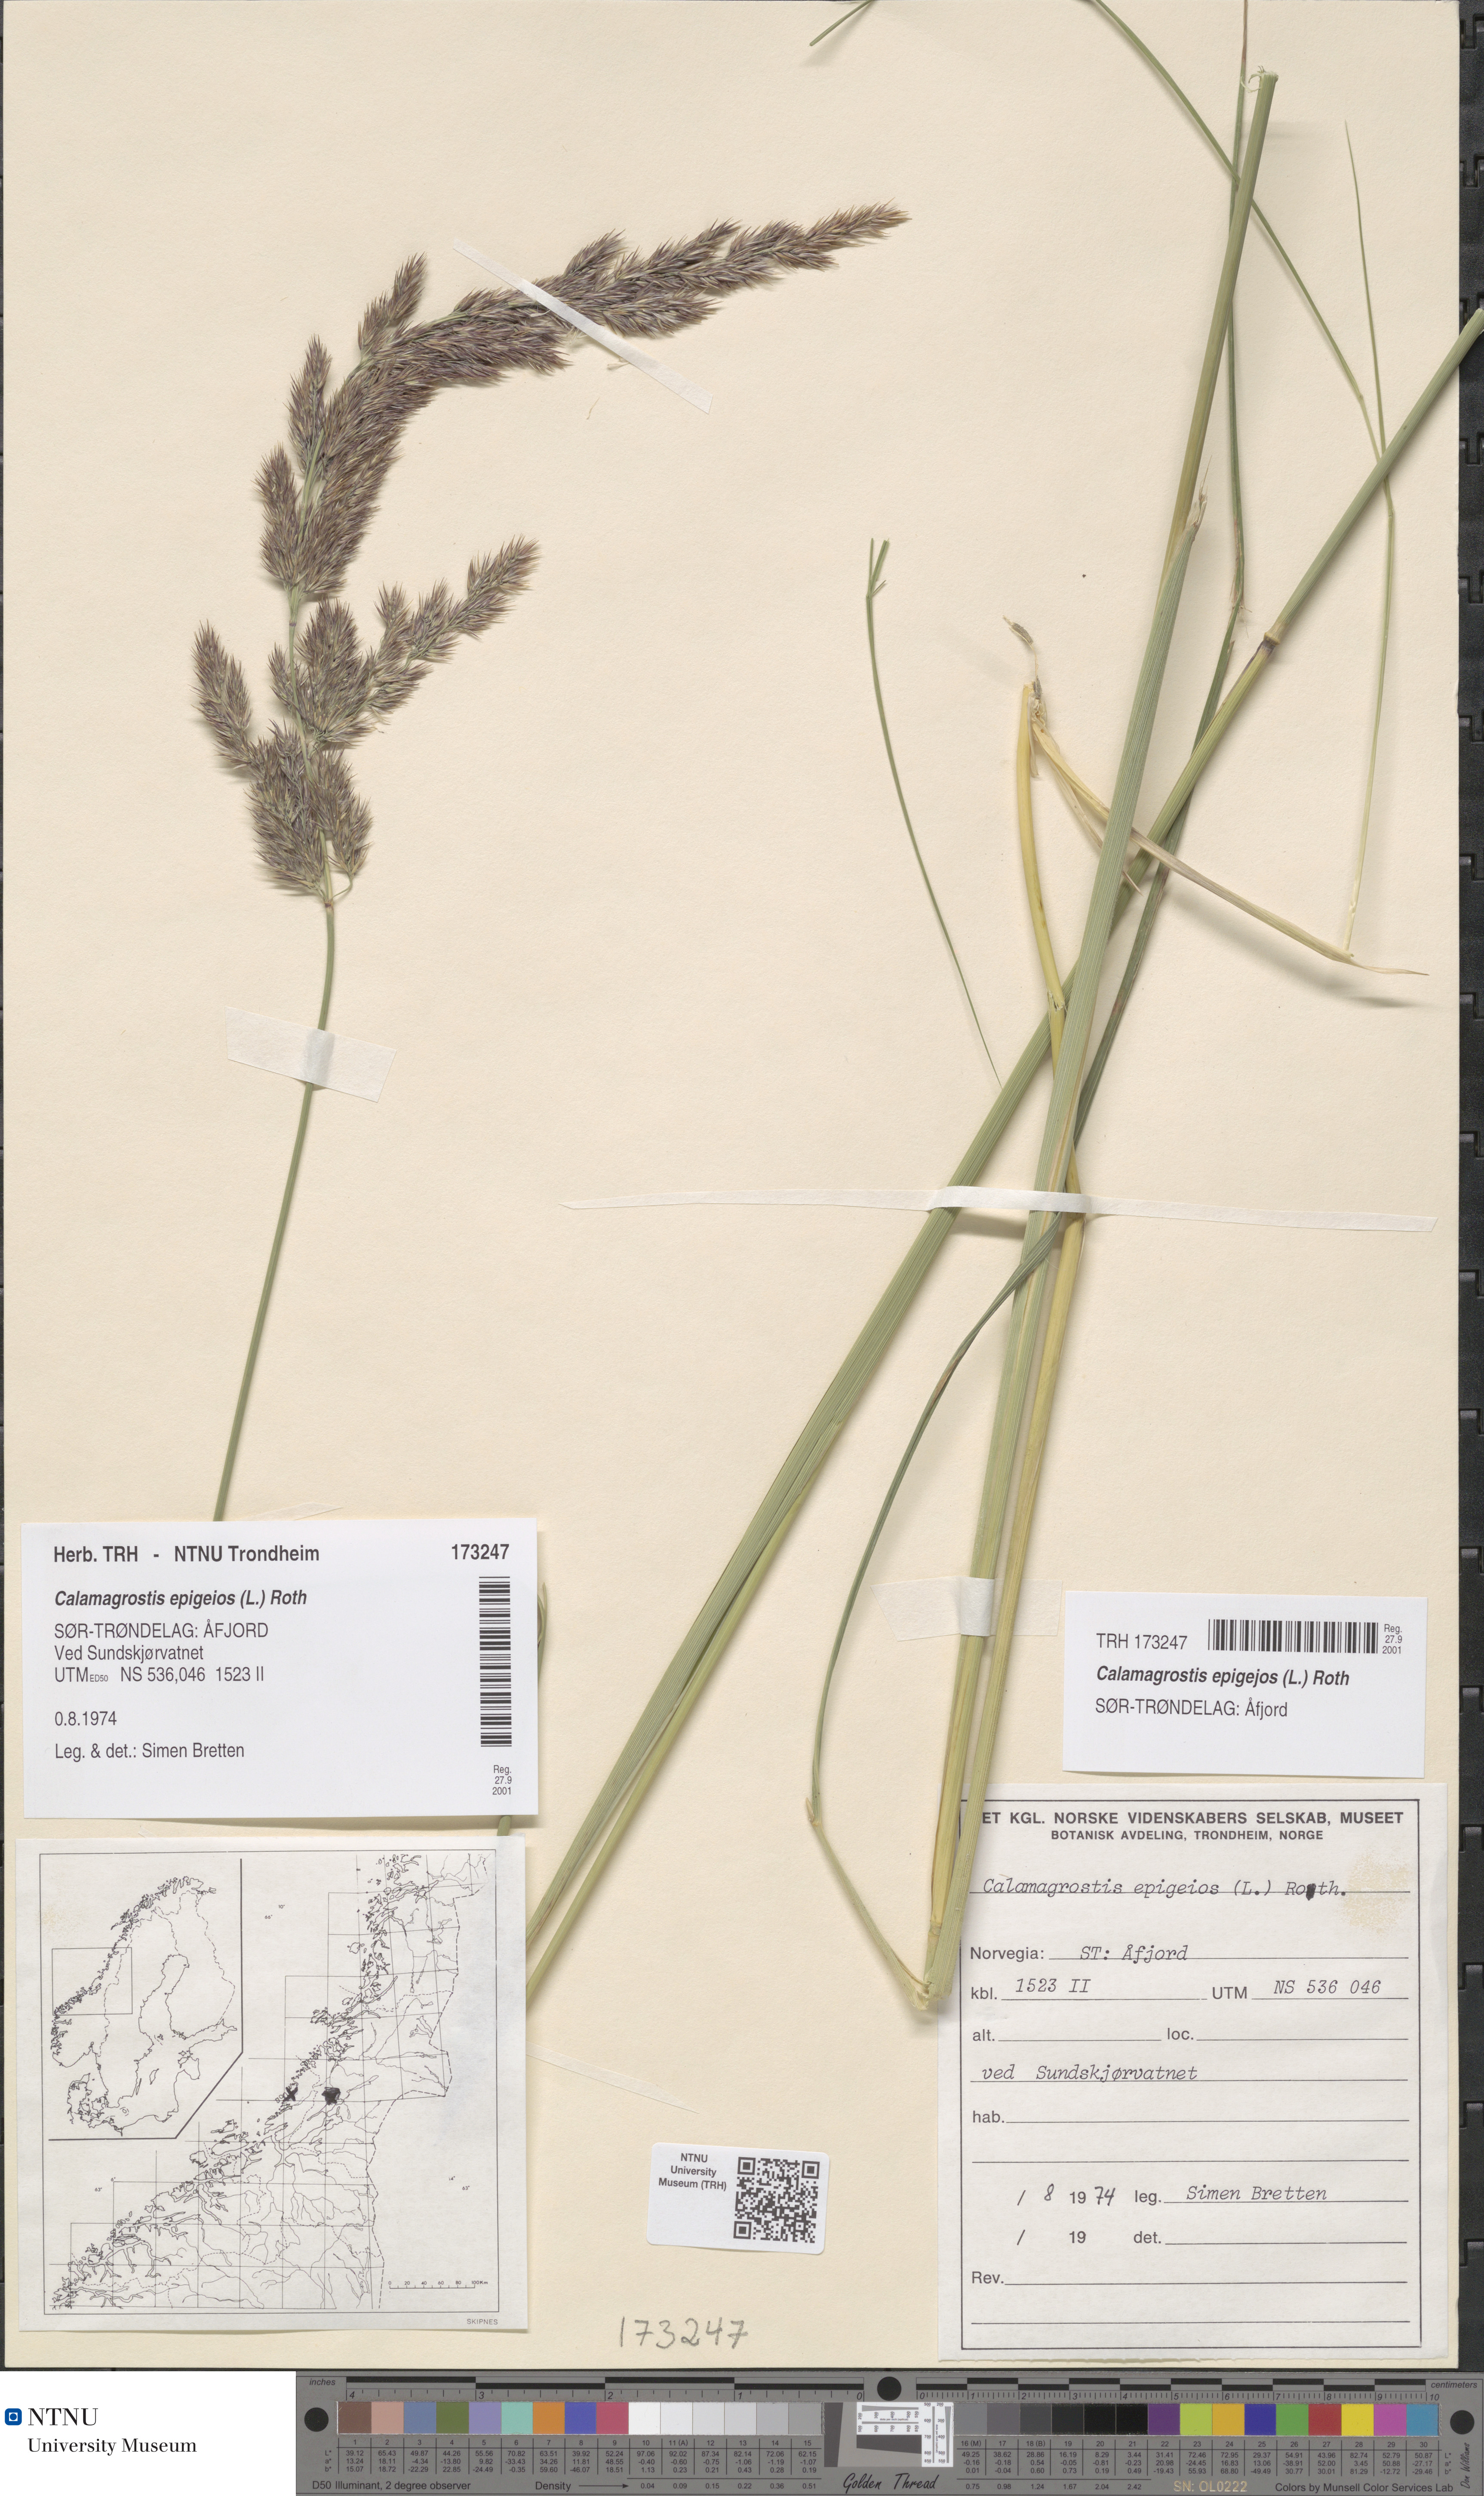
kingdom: Plantae
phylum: Tracheophyta
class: Liliopsida
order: Poales
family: Poaceae
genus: Calamagrostis
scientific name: Calamagrostis epigejos
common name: Wood small-reed
